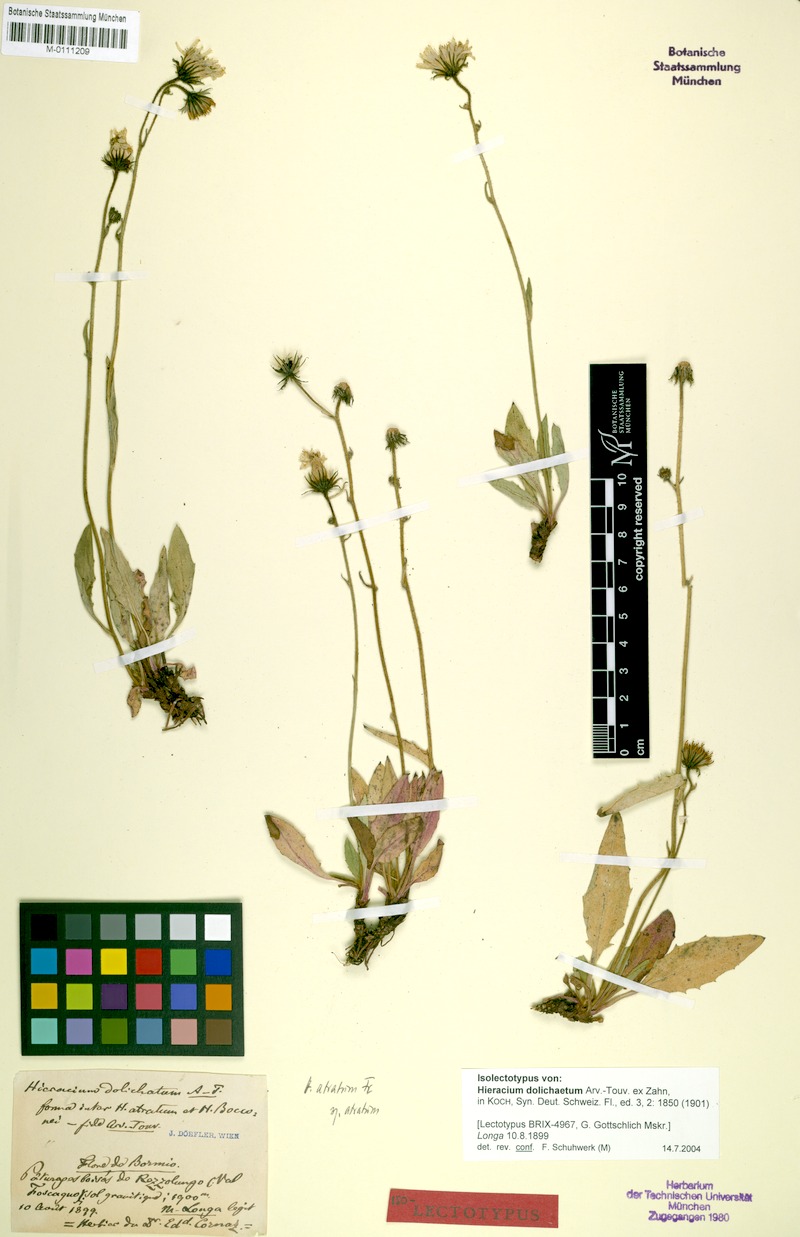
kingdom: Plantae
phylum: Tracheophyta
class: Magnoliopsida
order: Asterales
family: Asteraceae
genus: Hieracium
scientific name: Hieracium atratum
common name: Polar hawkweed
